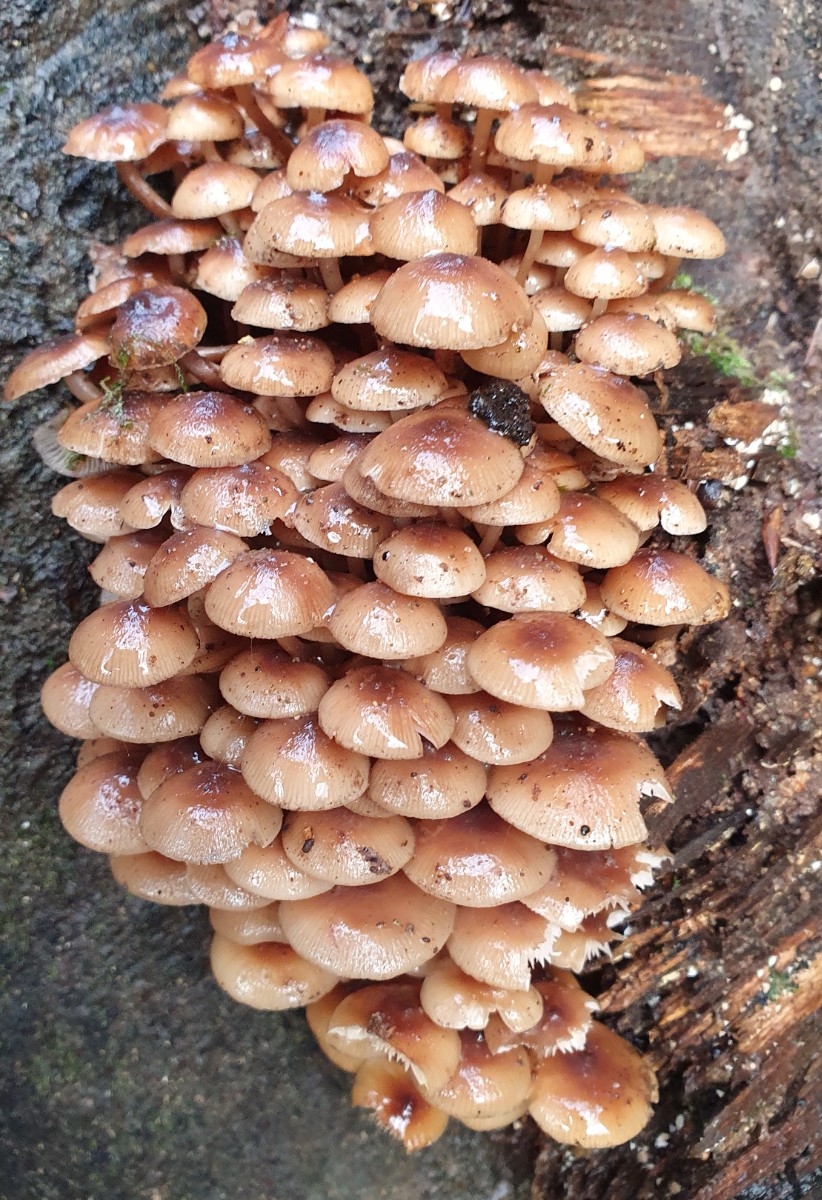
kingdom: Fungi
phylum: Basidiomycota
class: Agaricomycetes
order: Agaricales
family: Mycenaceae
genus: Mycena
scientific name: Mycena tintinnabulum
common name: vinter-huesvamp
